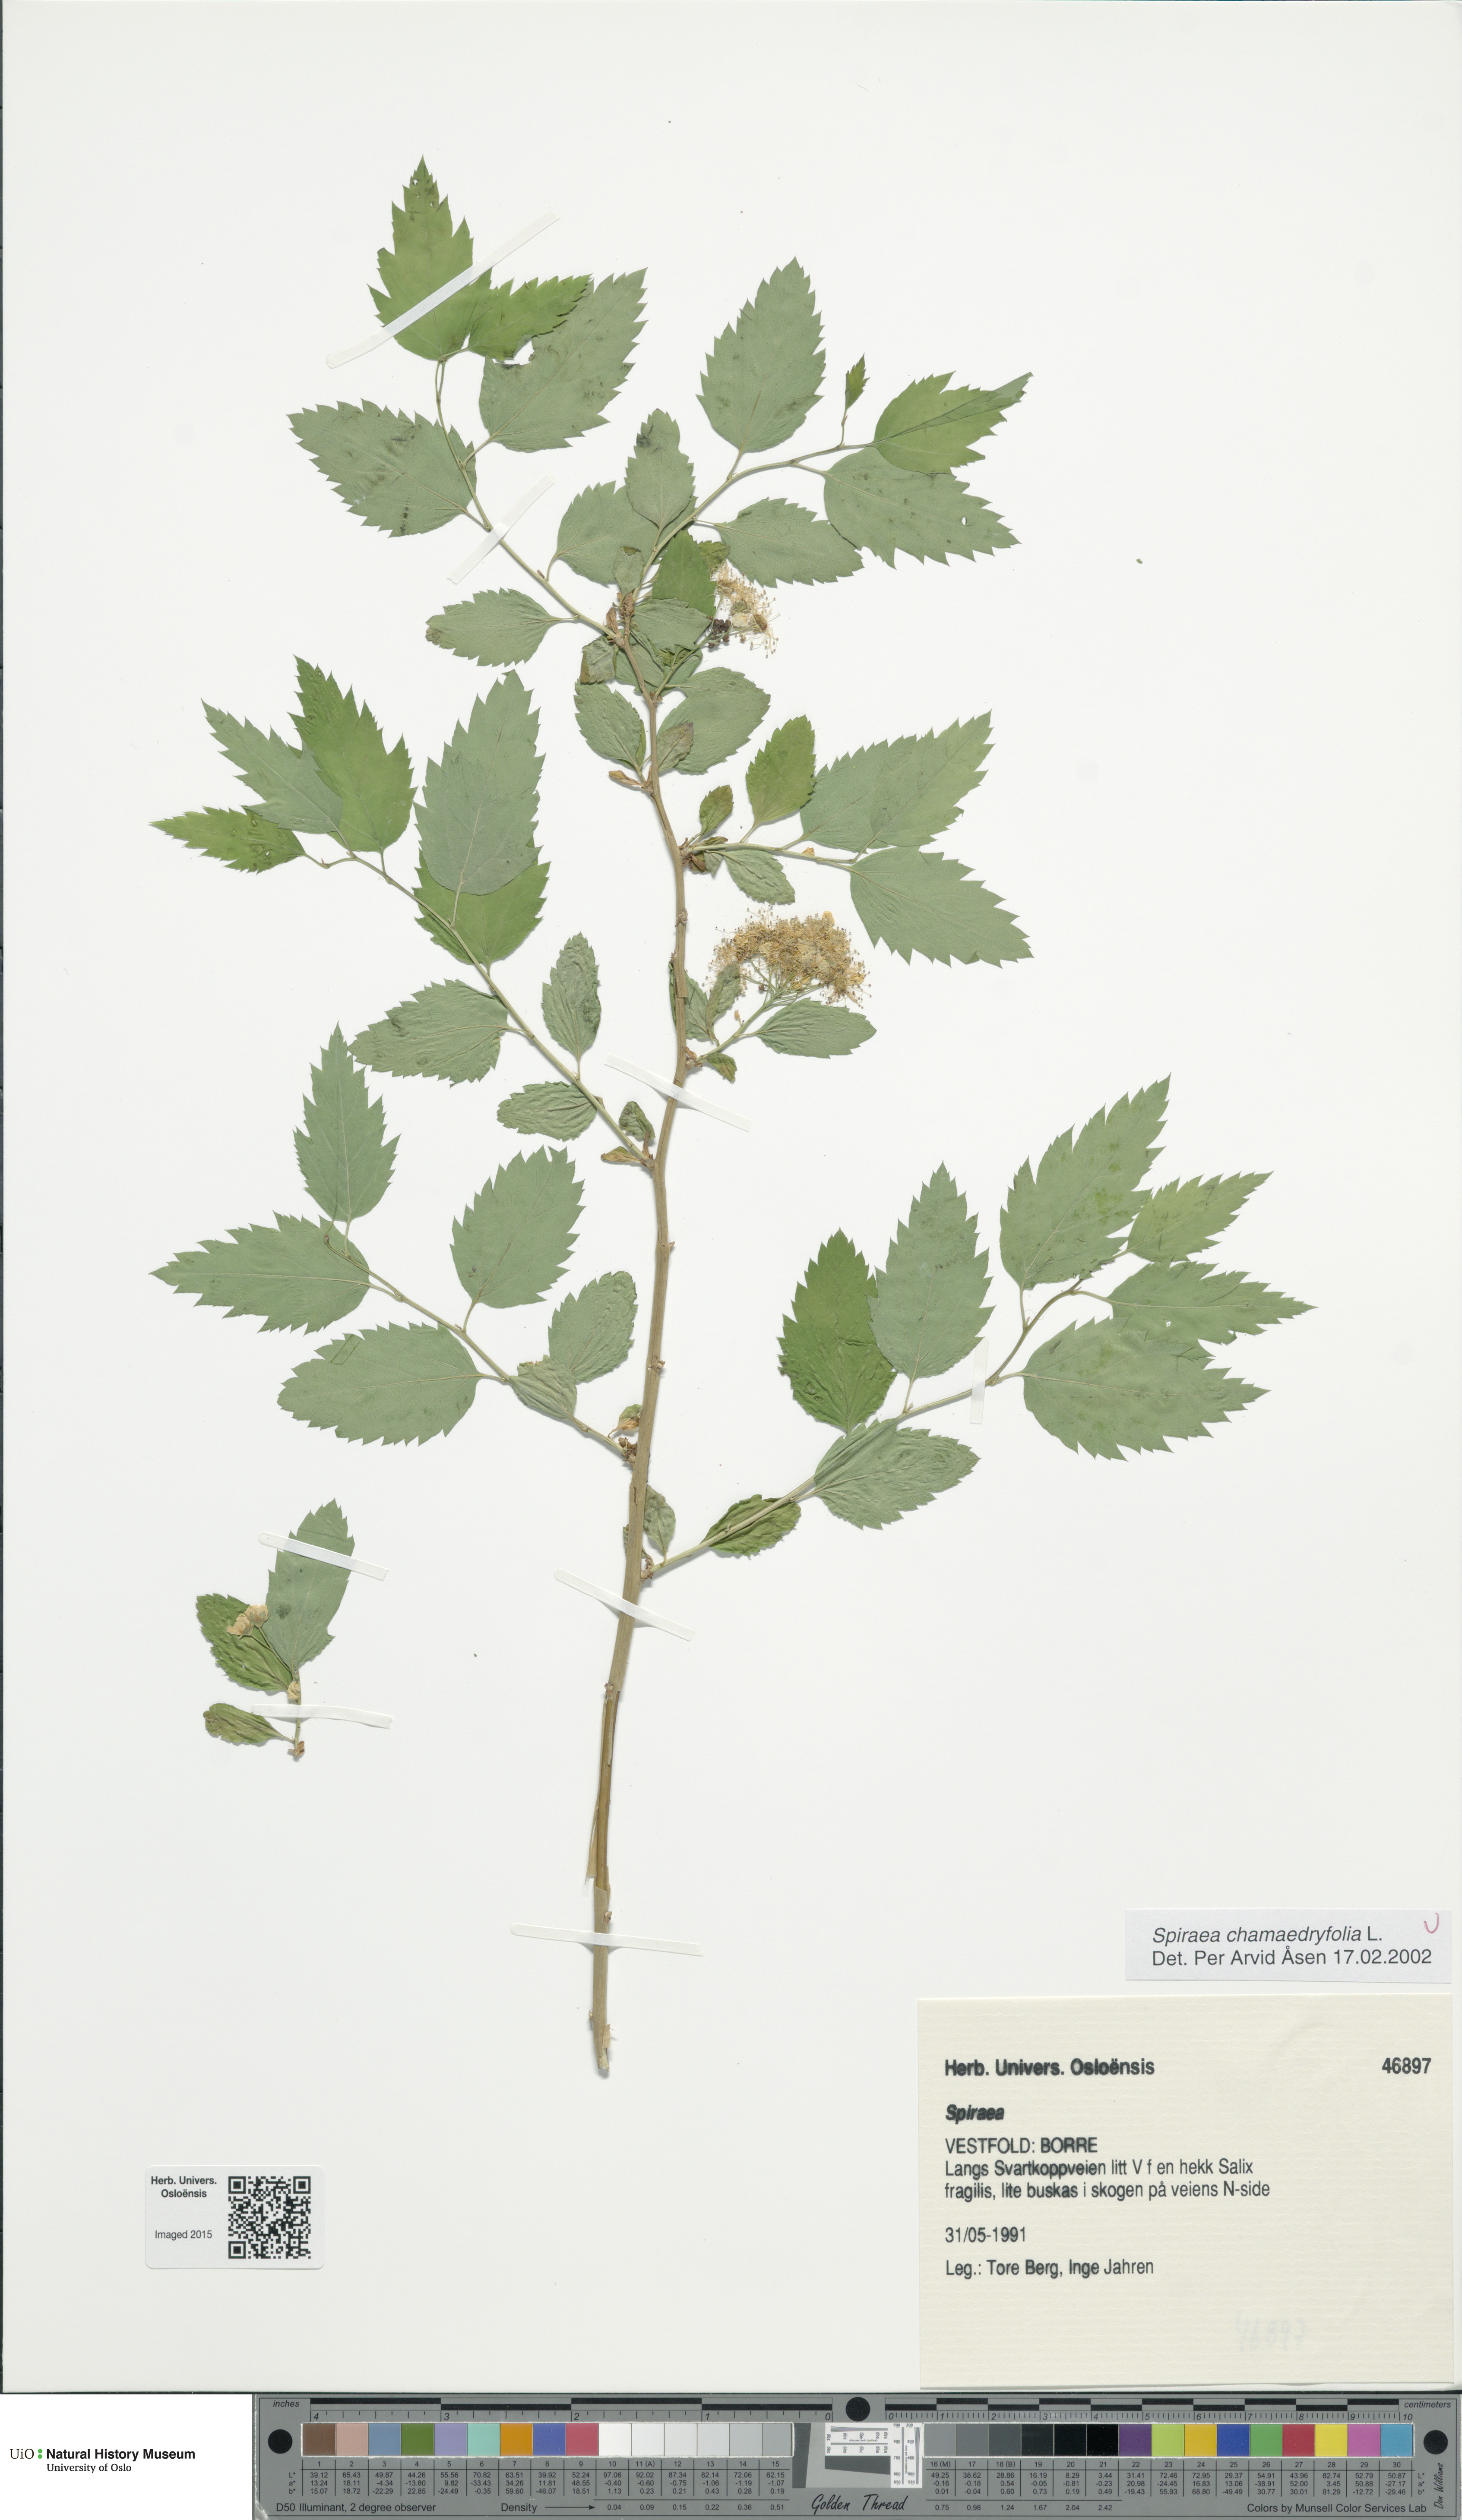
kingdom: Plantae
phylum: Tracheophyta
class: Magnoliopsida
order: Rosales
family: Rosaceae
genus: Spiraea
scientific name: Spiraea chamaedryfolia
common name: Elm-leaved spiraea
